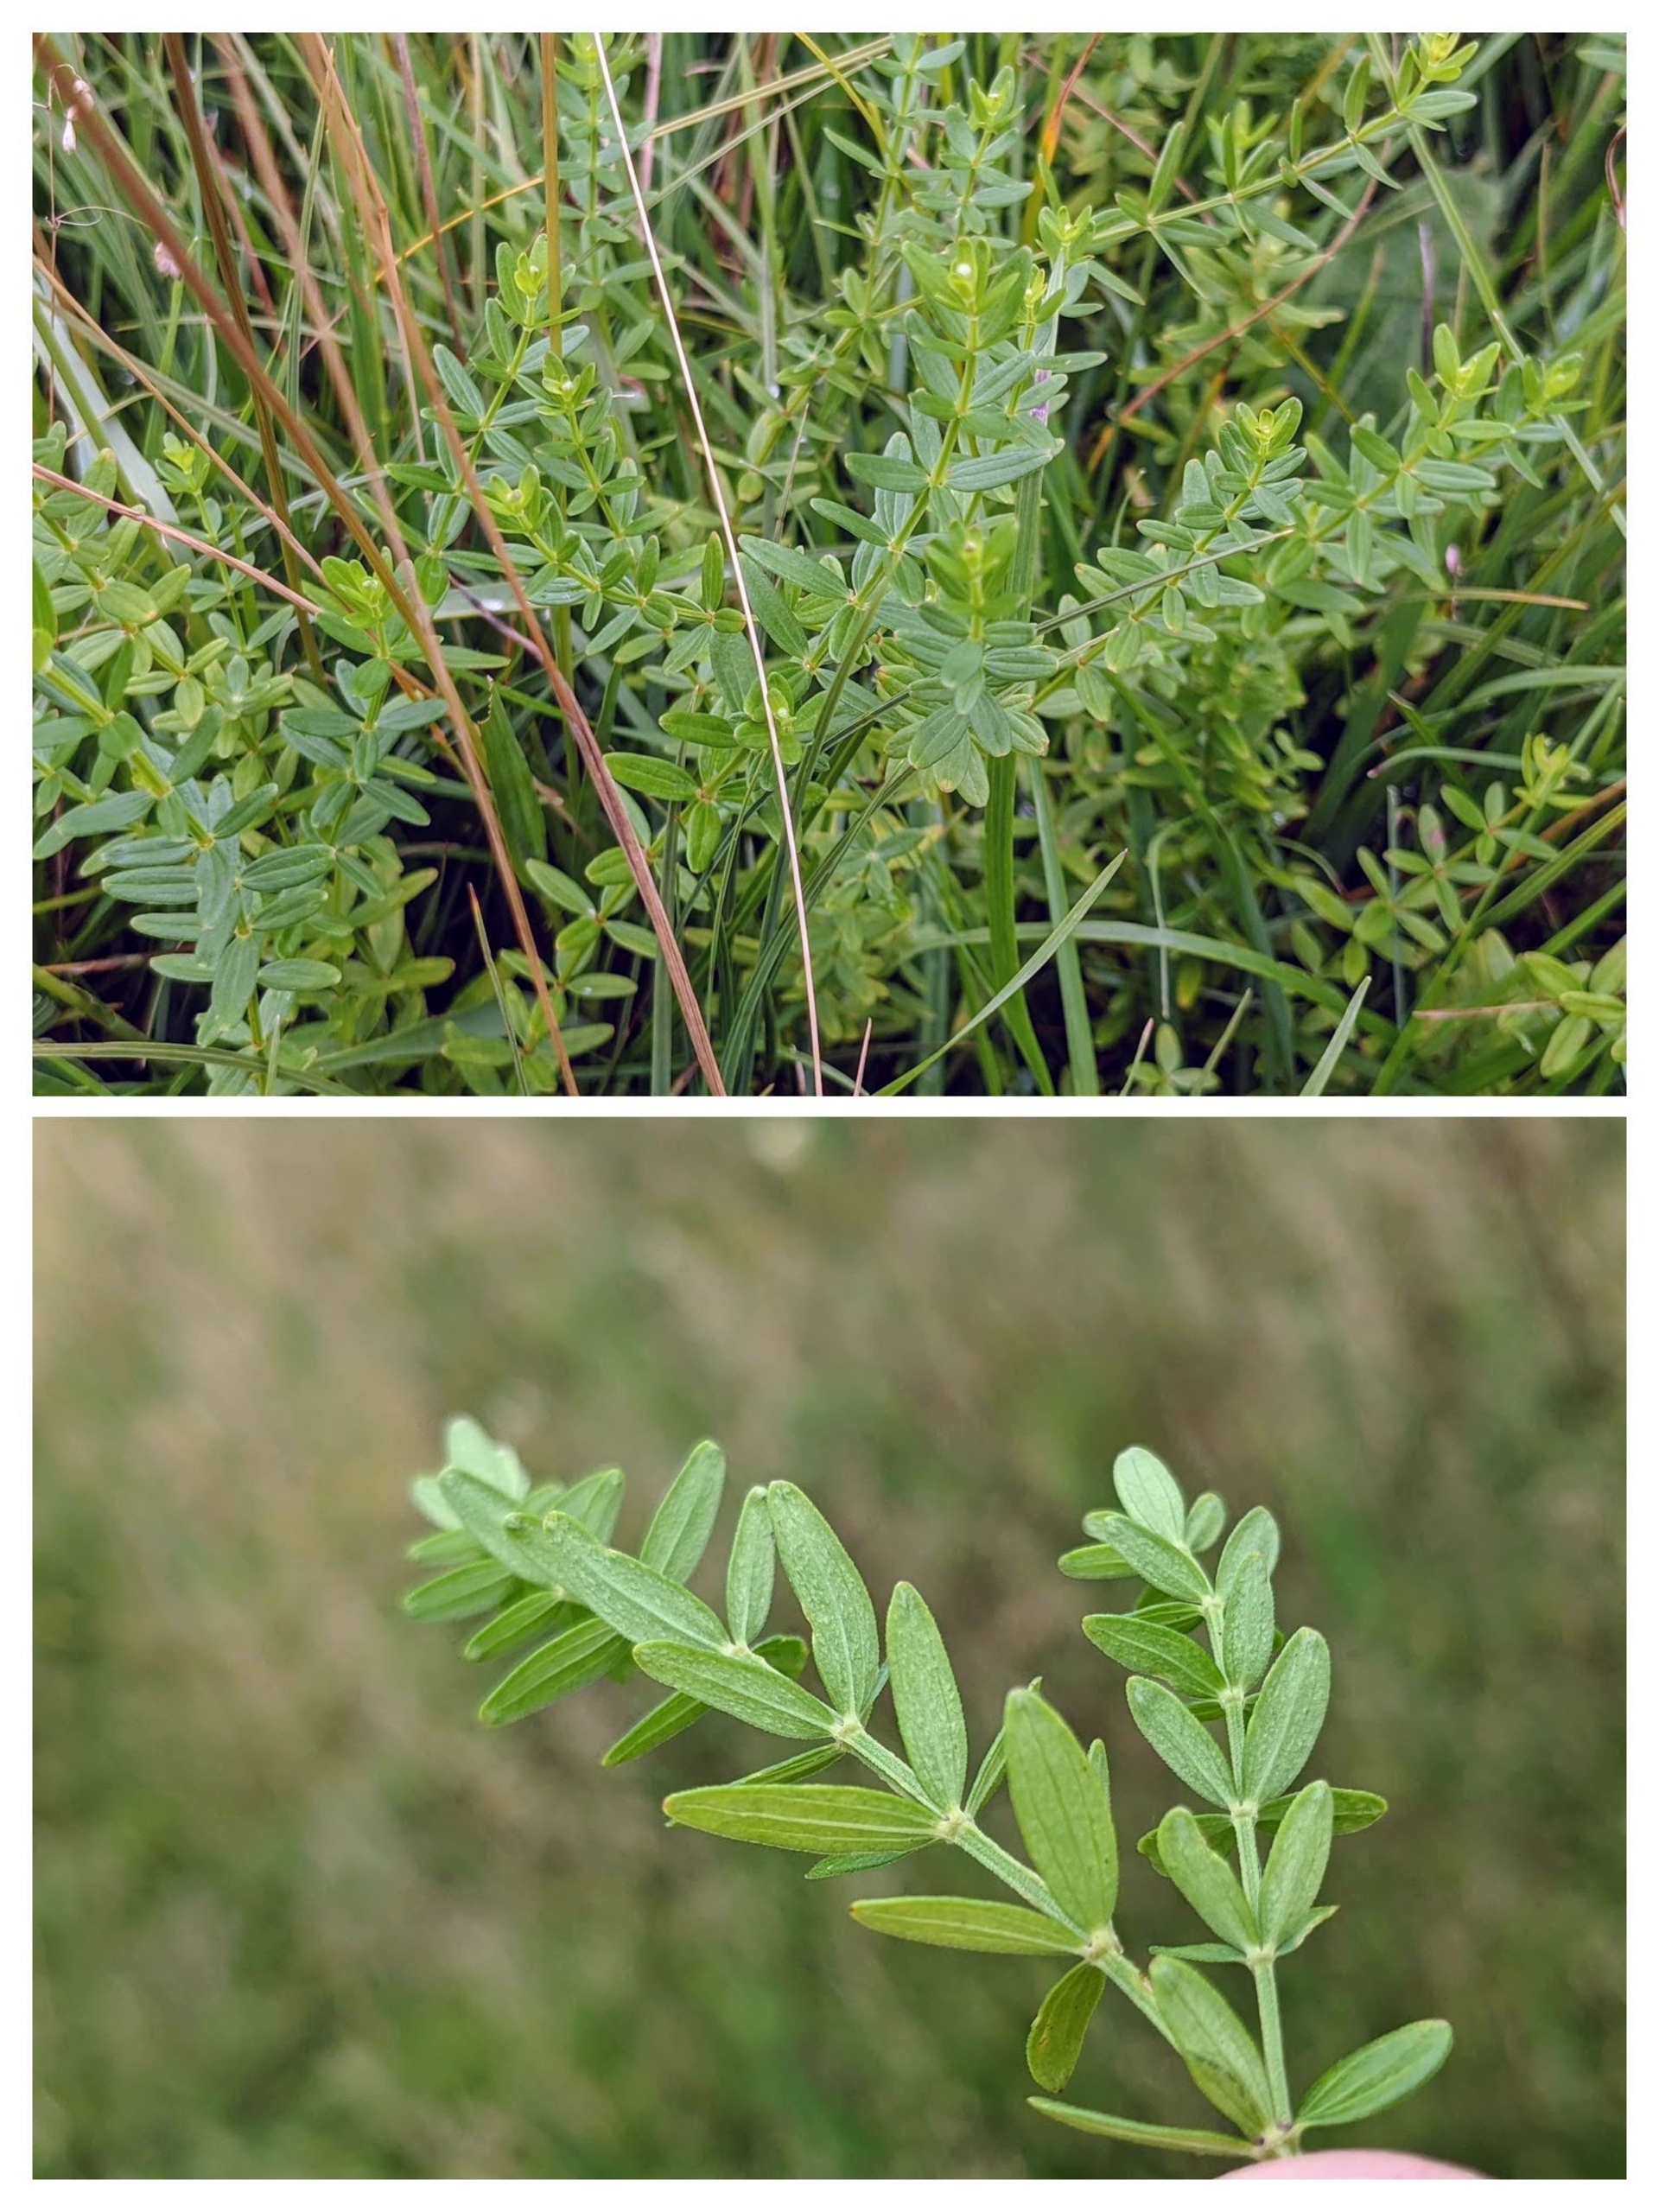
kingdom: Plantae
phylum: Tracheophyta
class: Magnoliopsida
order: Gentianales
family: Rubiaceae
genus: Galium
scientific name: Galium boreale
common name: Trenervet snerre
